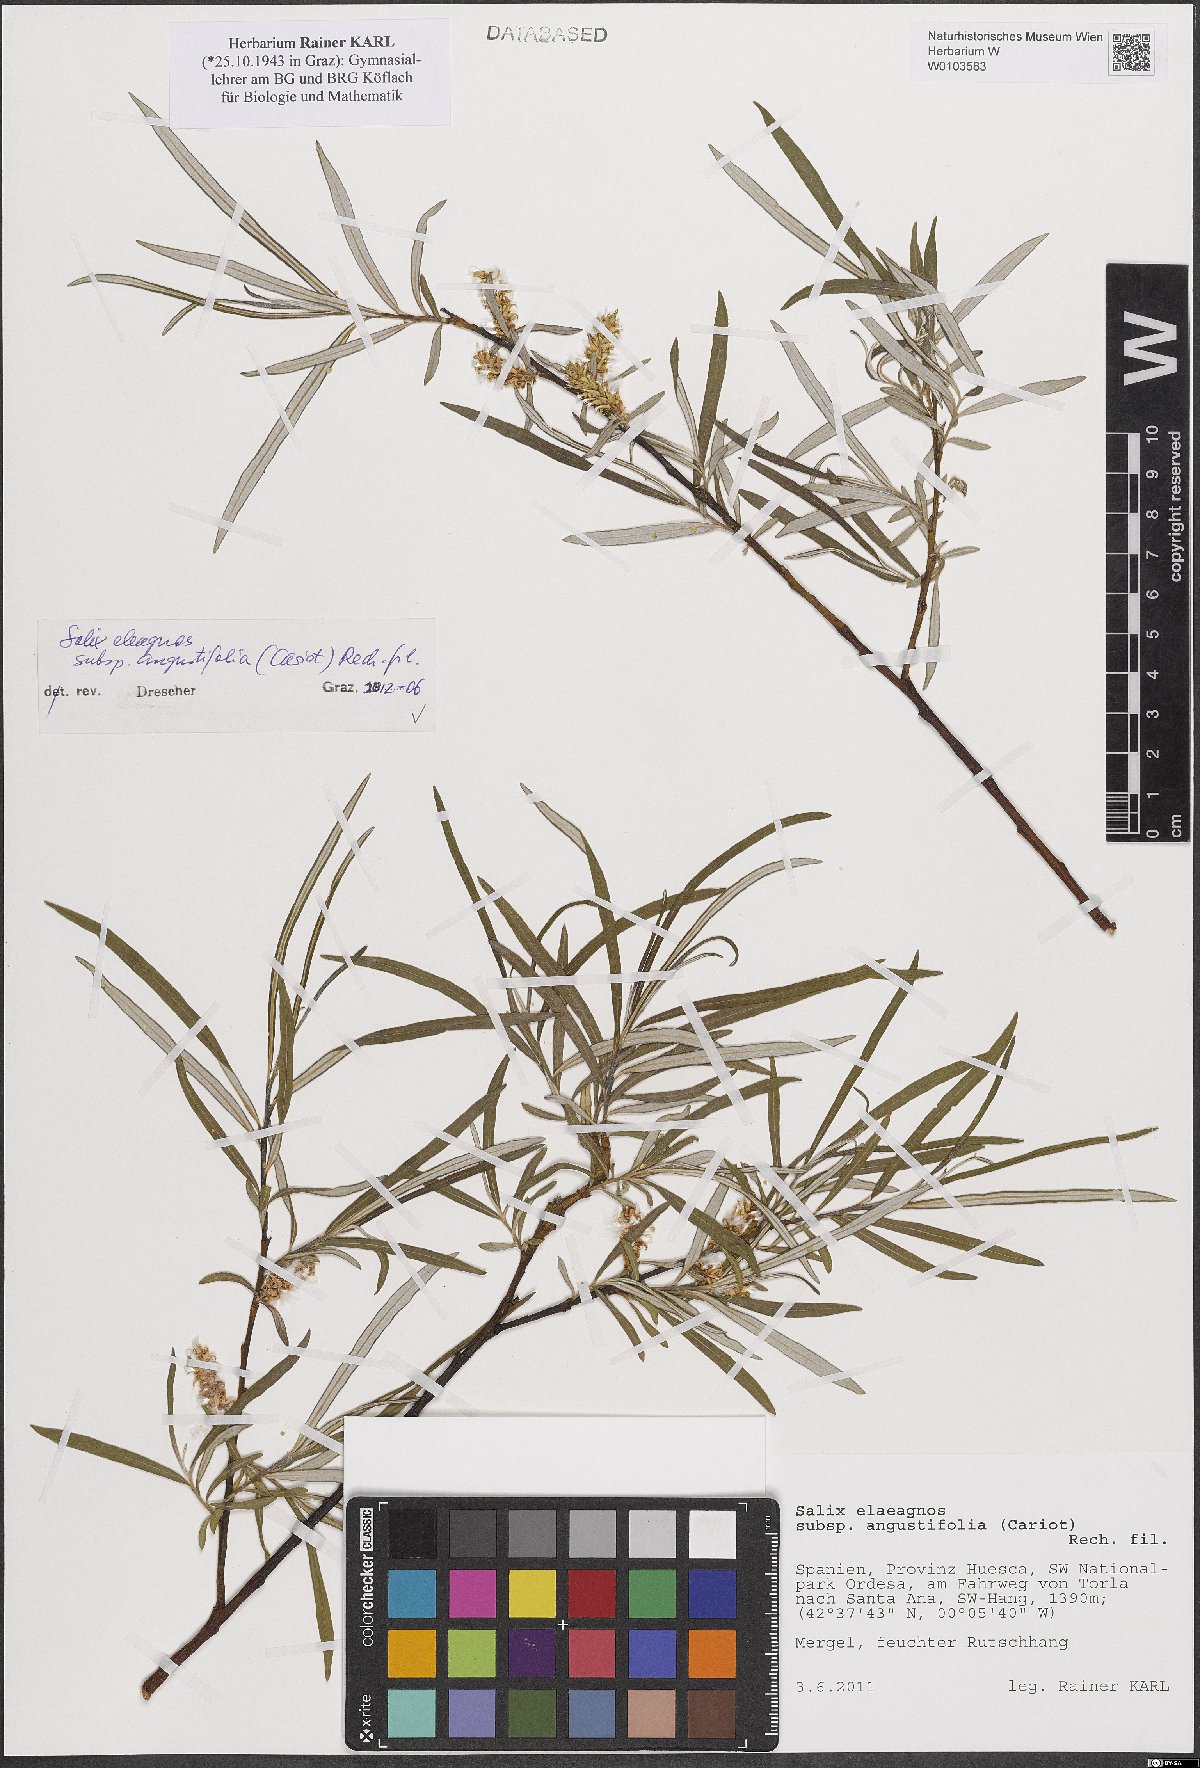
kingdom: Plantae
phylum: Tracheophyta
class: Magnoliopsida
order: Malpighiales
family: Salicaceae
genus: Salix
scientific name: Salix eleagnos
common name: Elaeagnus willow
